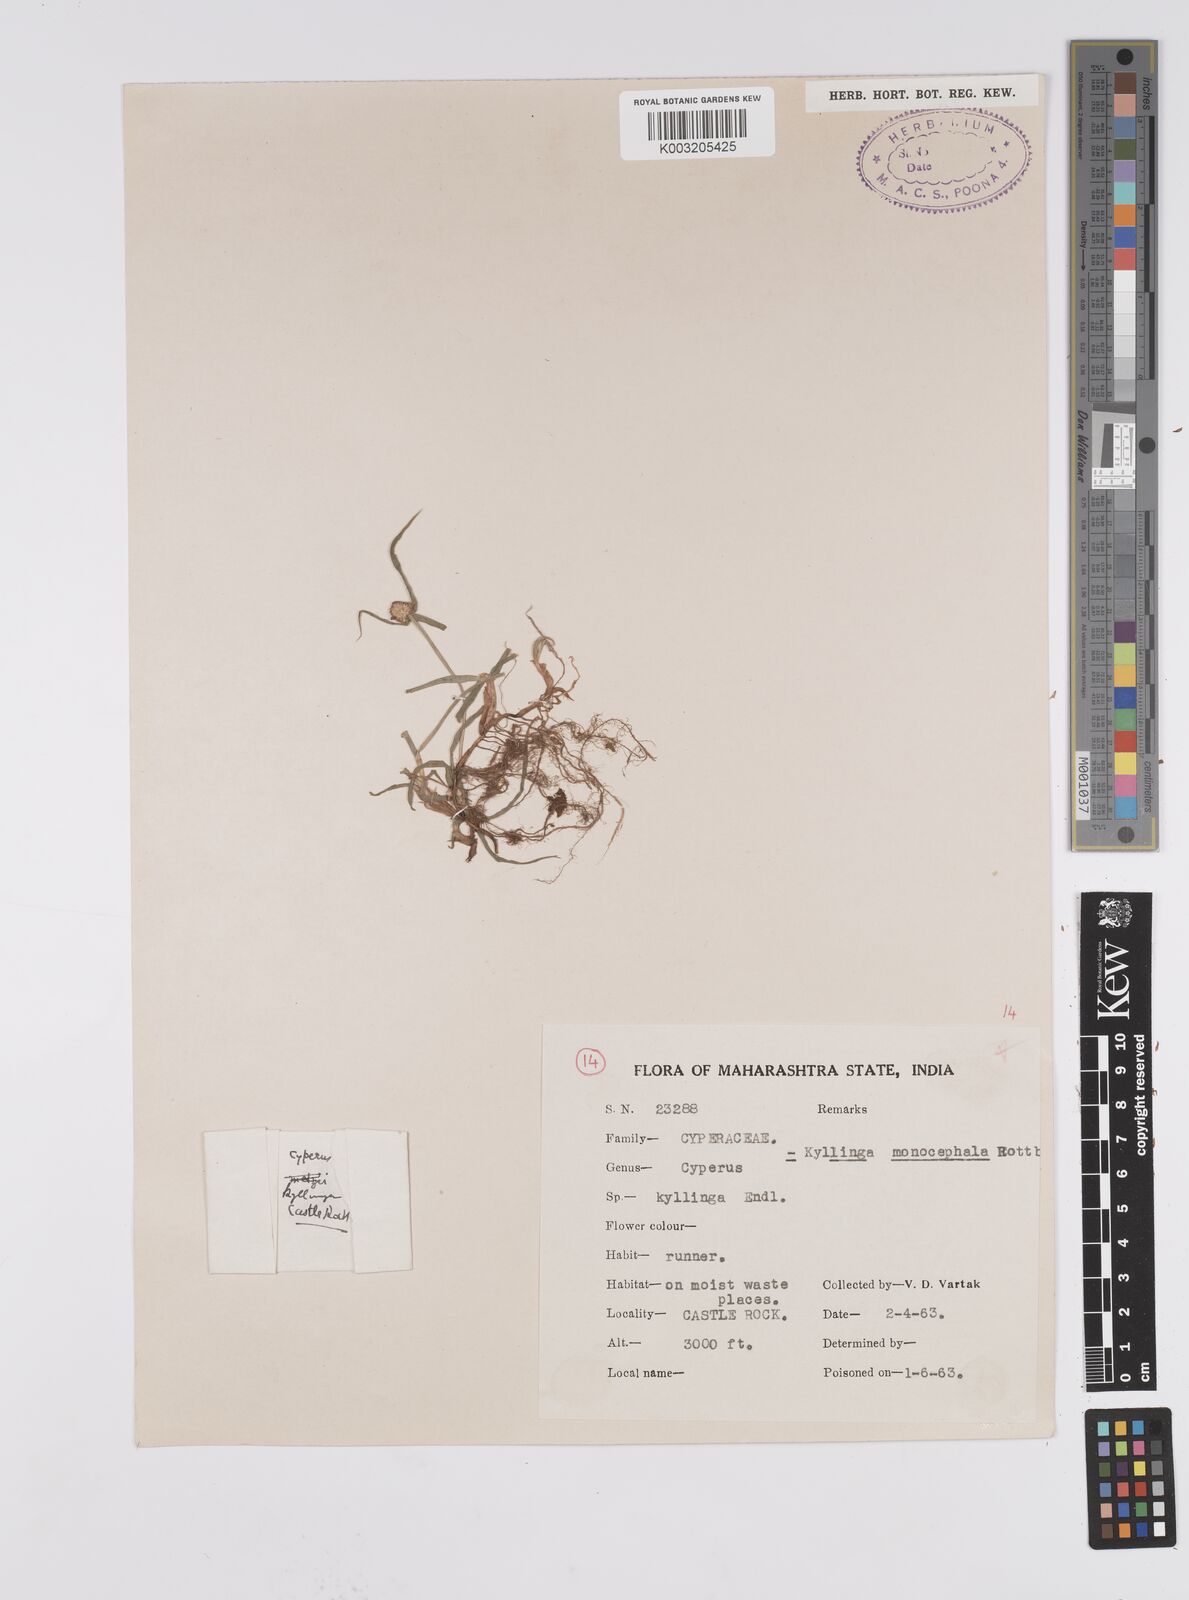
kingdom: Plantae
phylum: Tracheophyta
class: Liliopsida
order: Poales
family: Cyperaceae
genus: Cyperus
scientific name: Cyperus nemoralis
